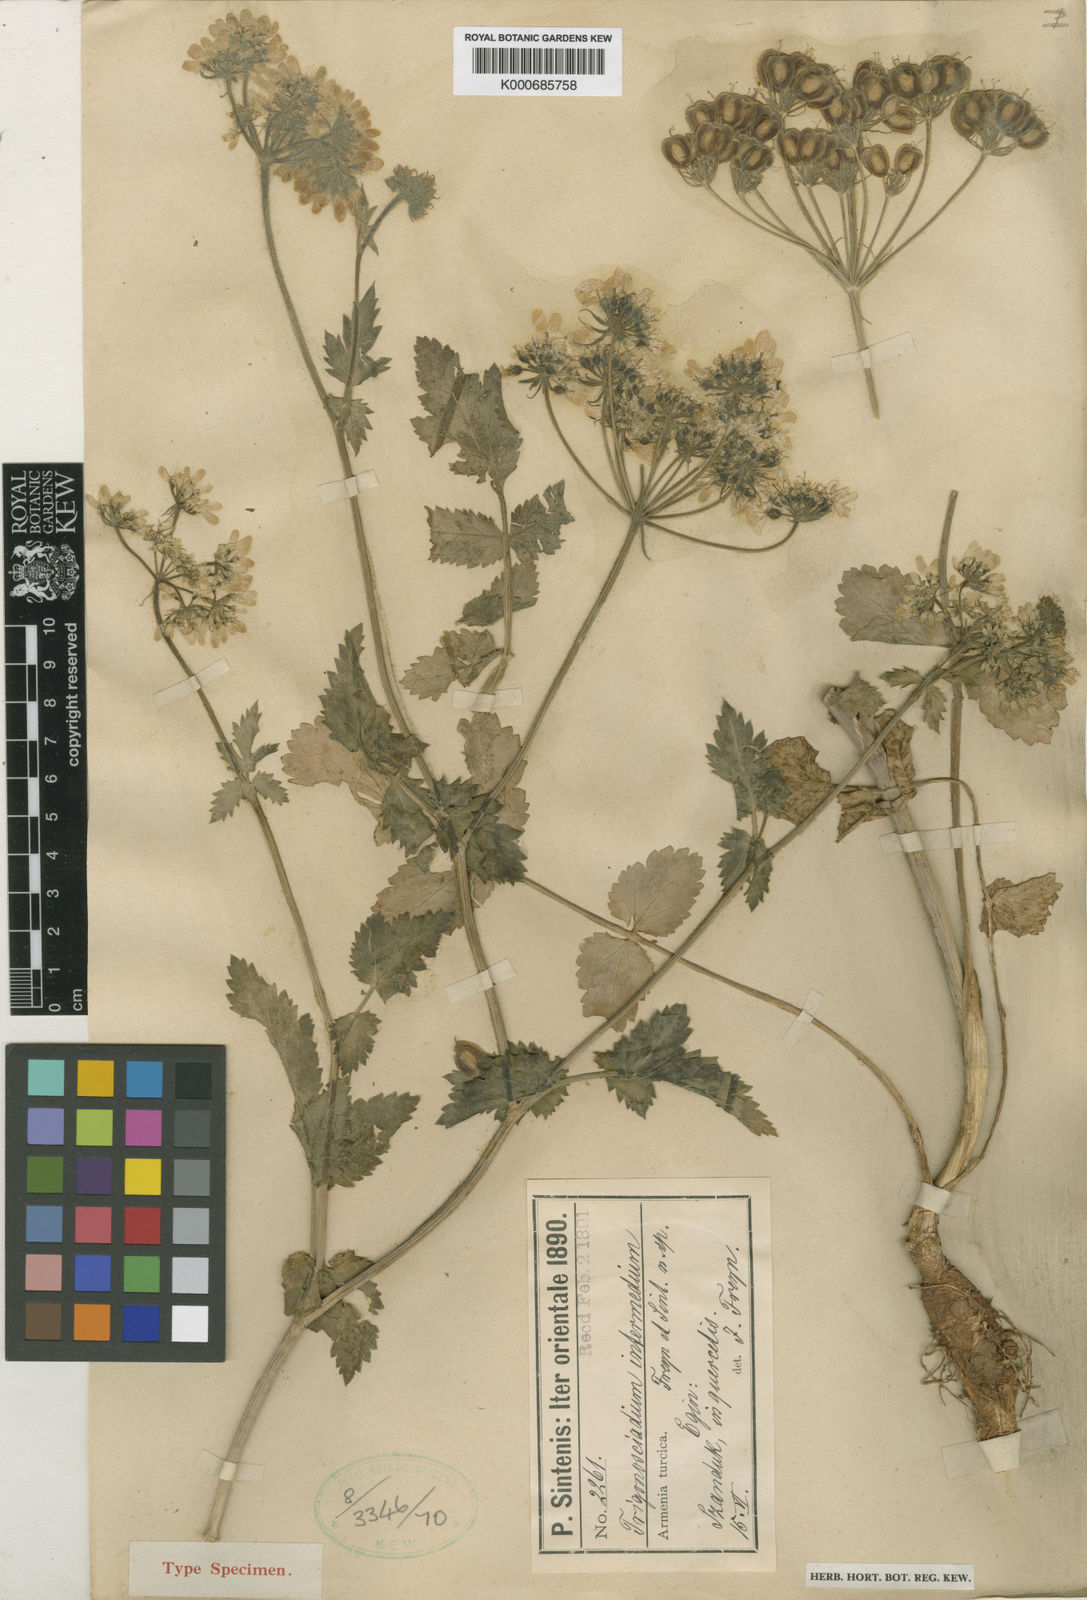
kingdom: Plantae
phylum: Tracheophyta
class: Magnoliopsida
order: Apiales
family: Apiaceae
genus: Trigonosciadium
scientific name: Trigonosciadium
